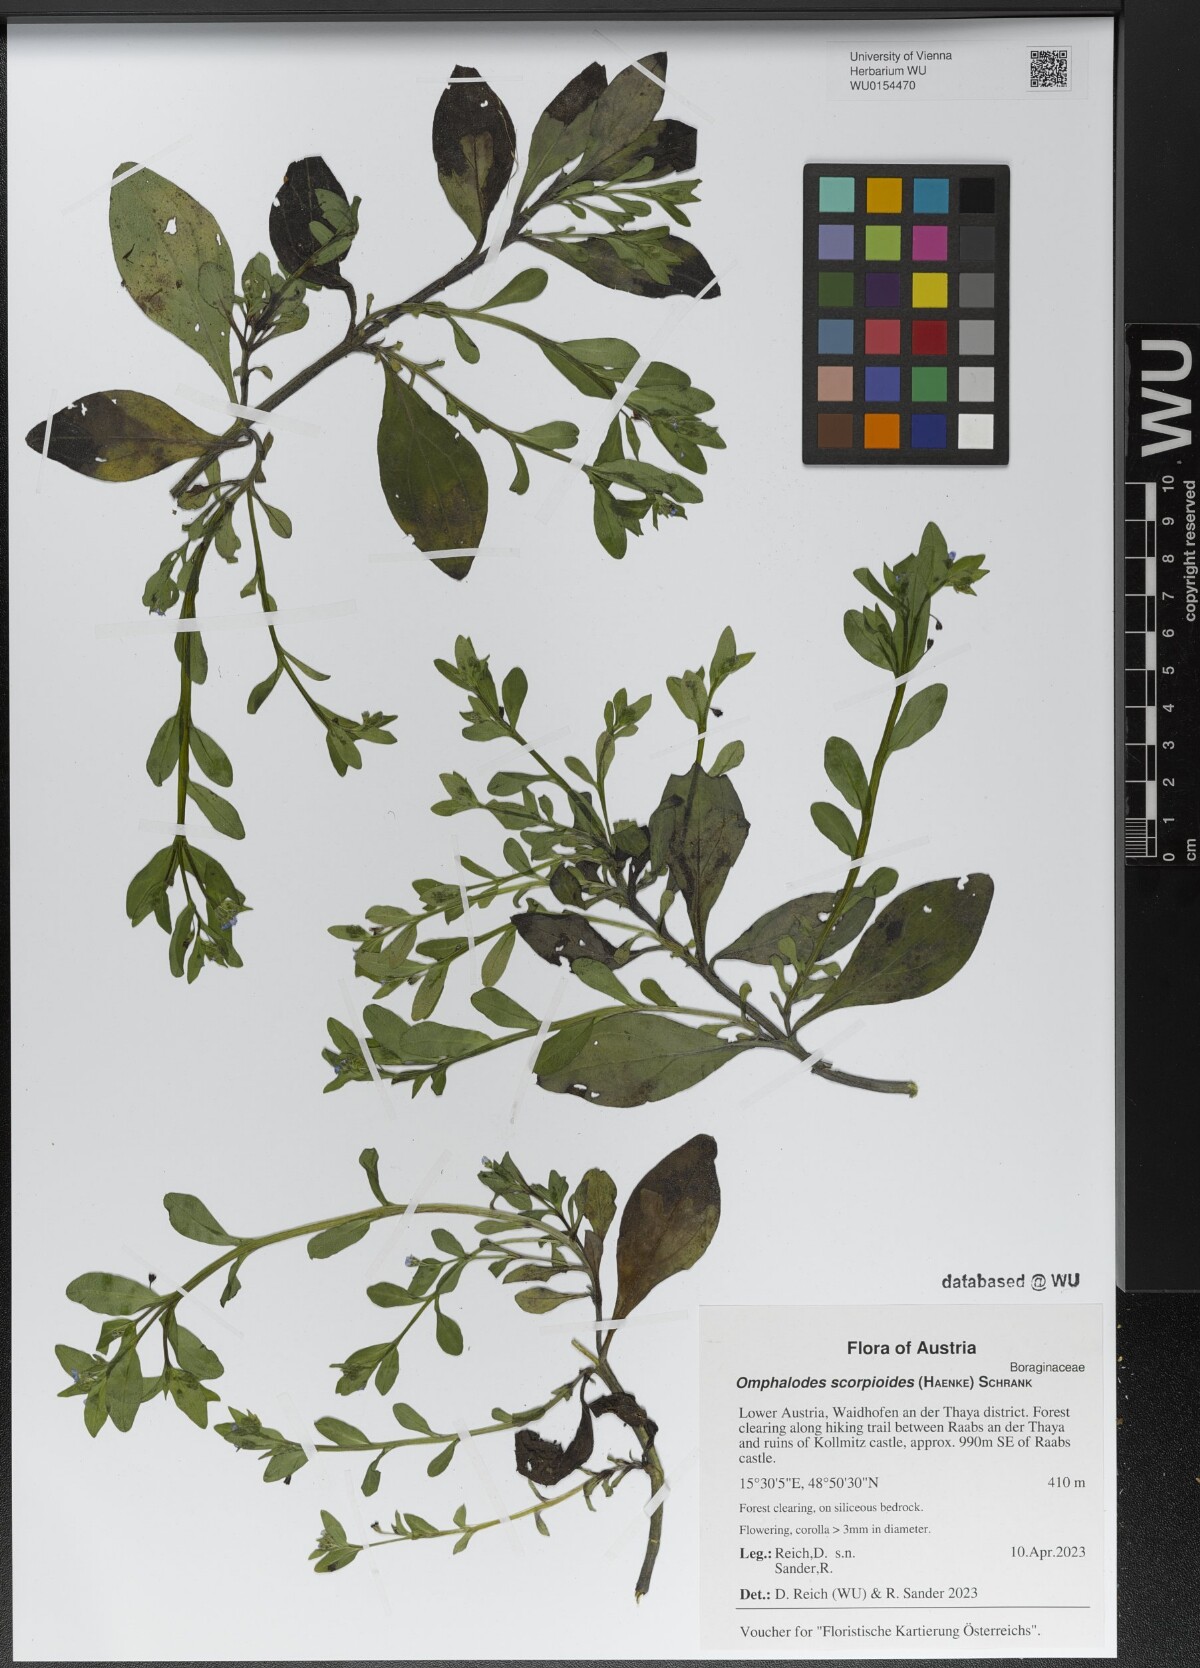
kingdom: Plantae
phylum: Tracheophyta
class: Magnoliopsida
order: Boraginales
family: Boraginaceae
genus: Memoremea
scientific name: Memoremea scorpioides
